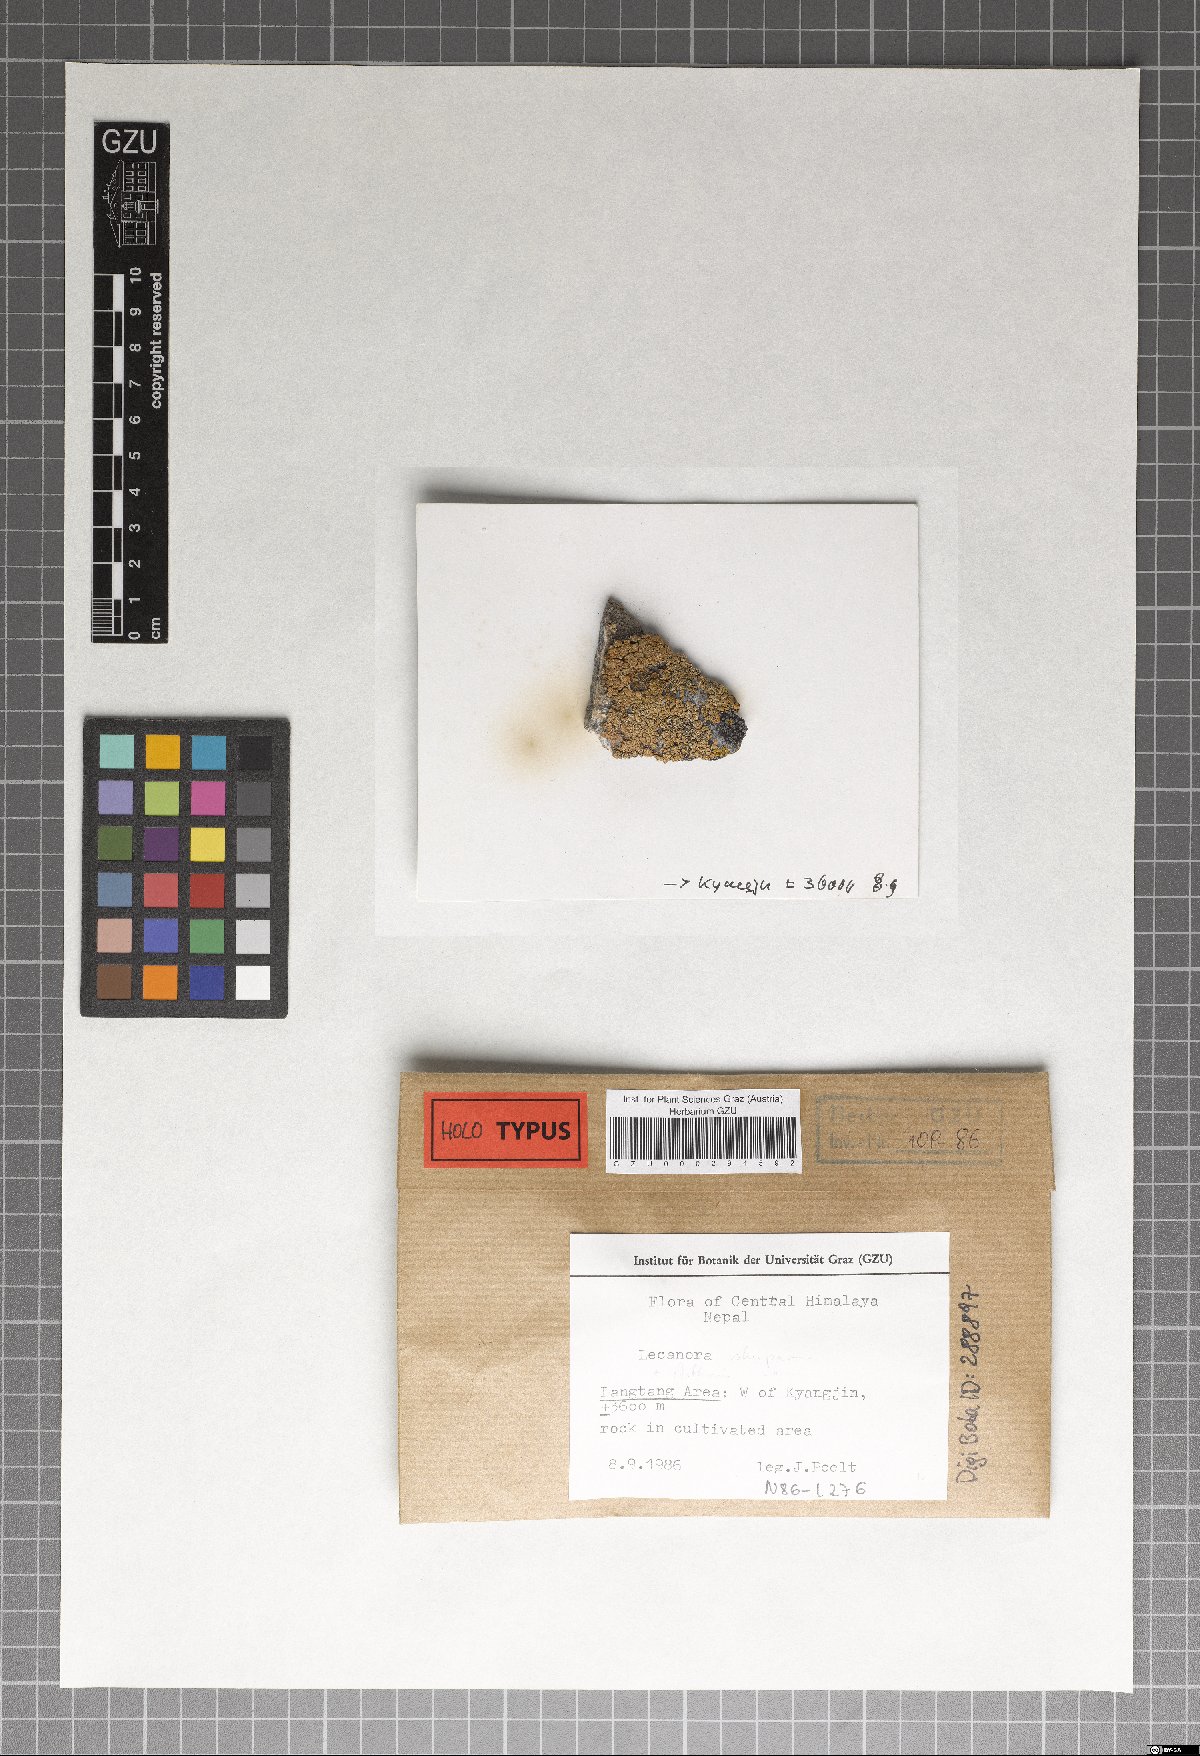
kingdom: Fungi
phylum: Ascomycota
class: Arthoniomycetes
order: Arthoniales
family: Arthoniaceae
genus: Arthonia
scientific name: Arthonia
